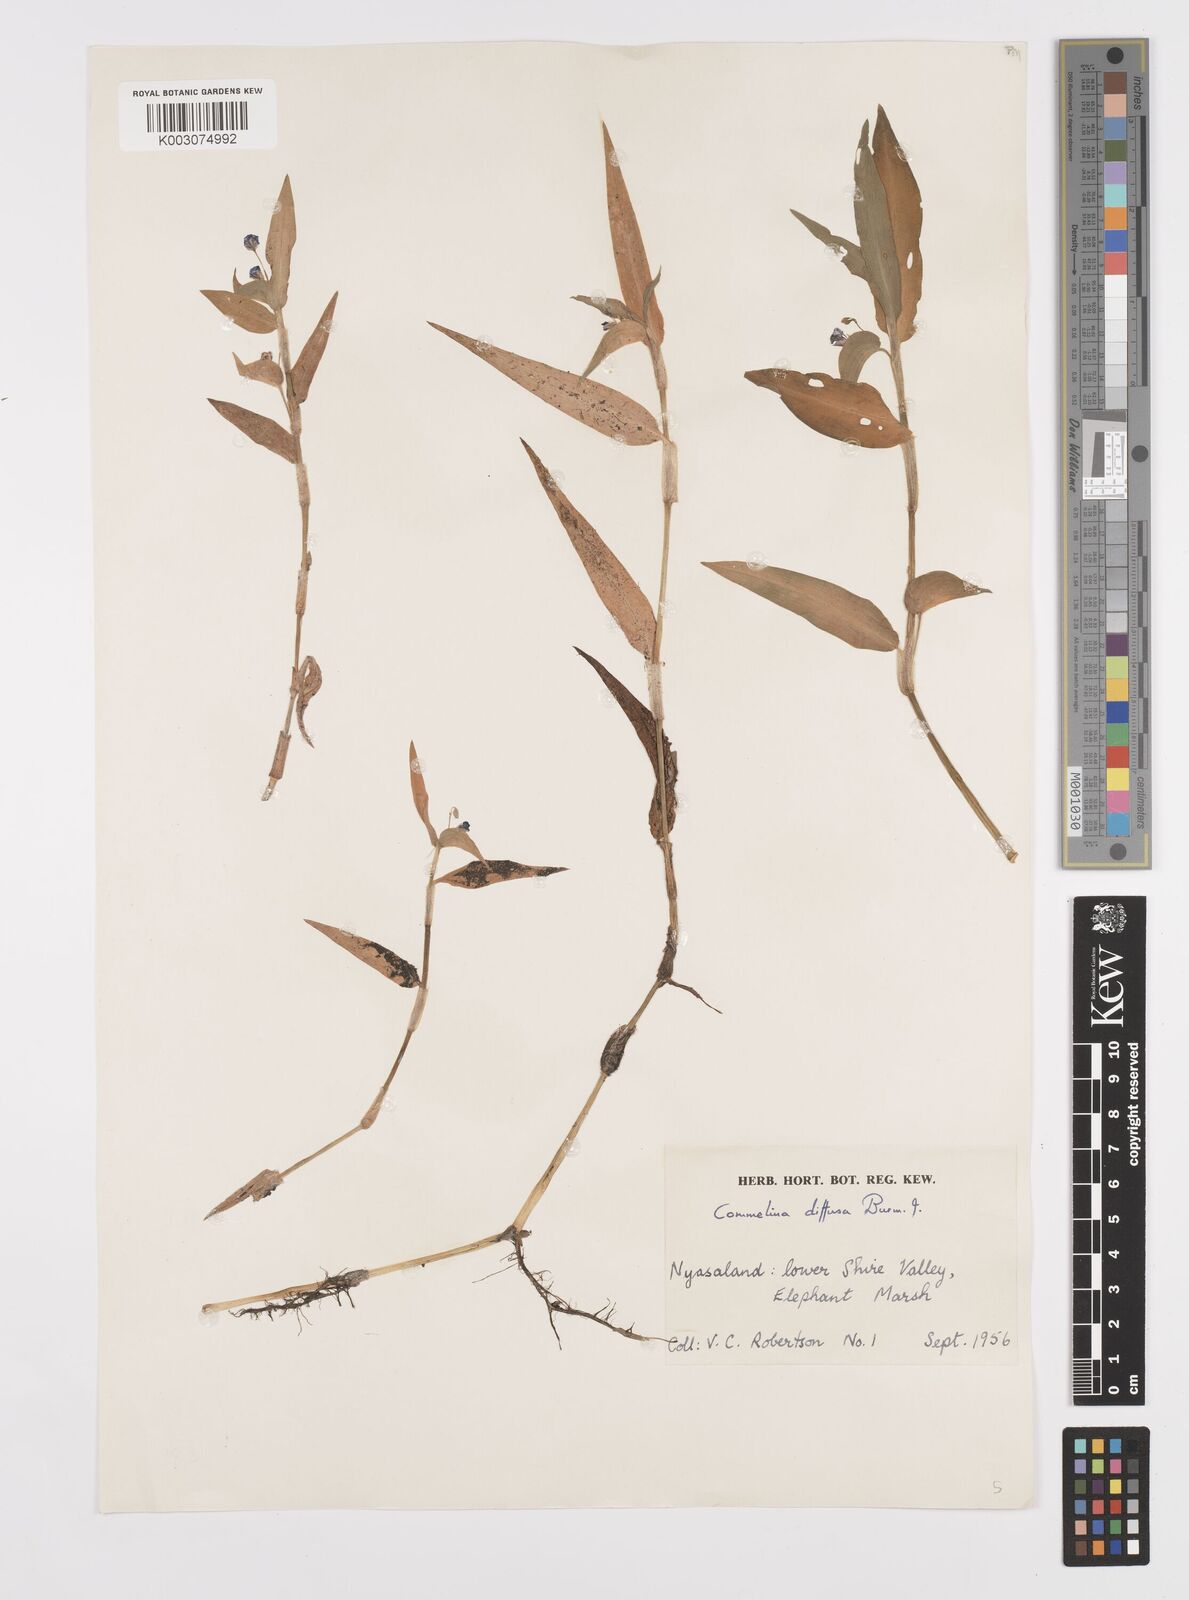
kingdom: Plantae
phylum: Tracheophyta
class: Liliopsida
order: Commelinales
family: Commelinaceae
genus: Commelina
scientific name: Commelina diffusa
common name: Climbing dayflower
